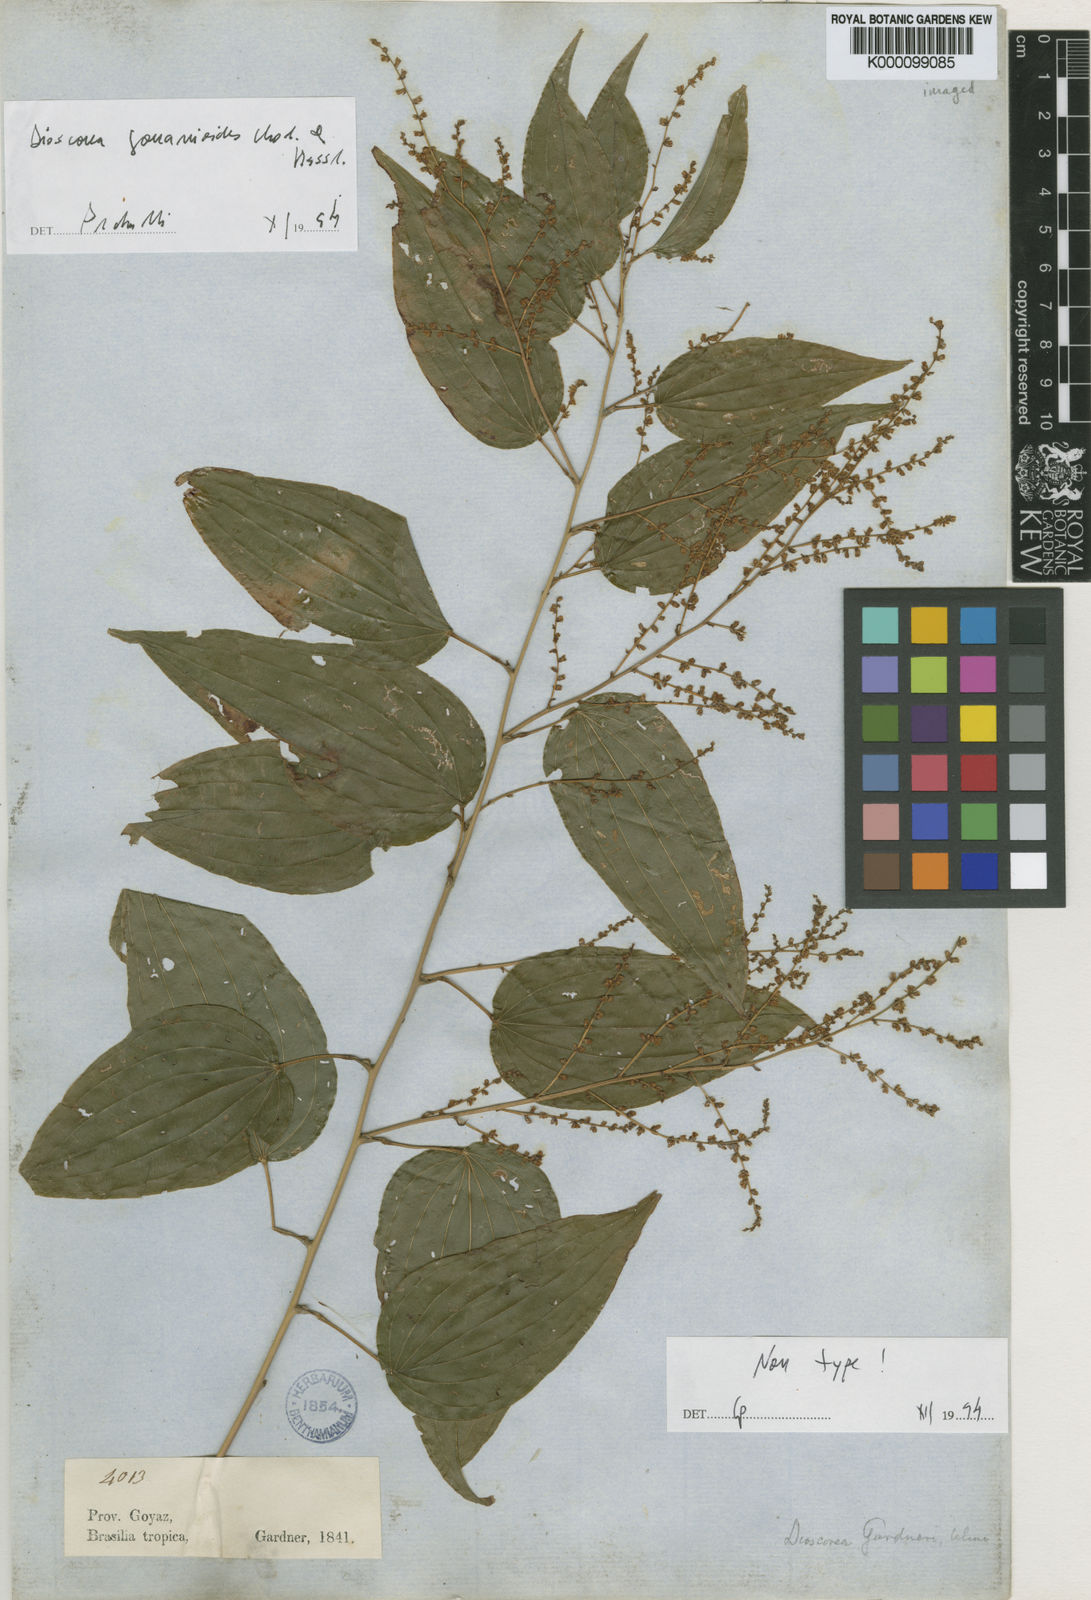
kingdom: Plantae
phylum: Tracheophyta
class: Liliopsida
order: Dioscoreales
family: Dioscoreaceae
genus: Dioscorea
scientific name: Dioscorea acanthogene
